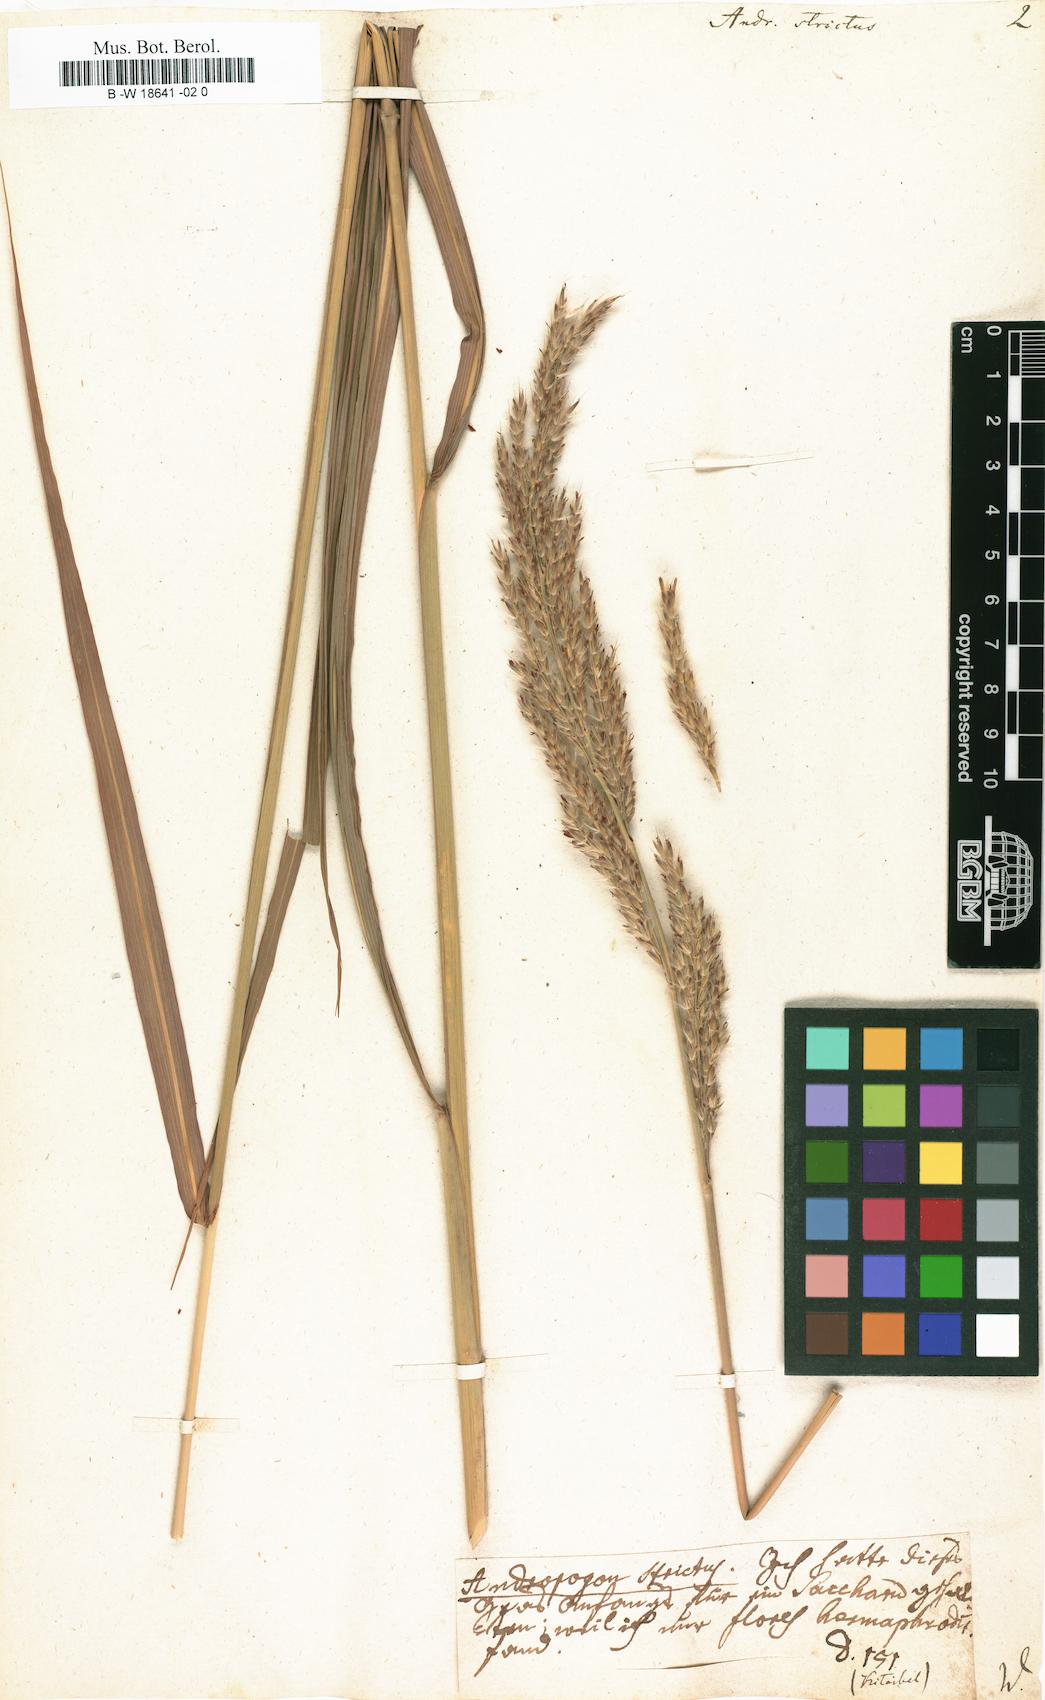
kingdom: Plantae
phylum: Tracheophyta
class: Liliopsida
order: Poales
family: Poaceae
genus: Tripidium
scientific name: Tripidium strictum
